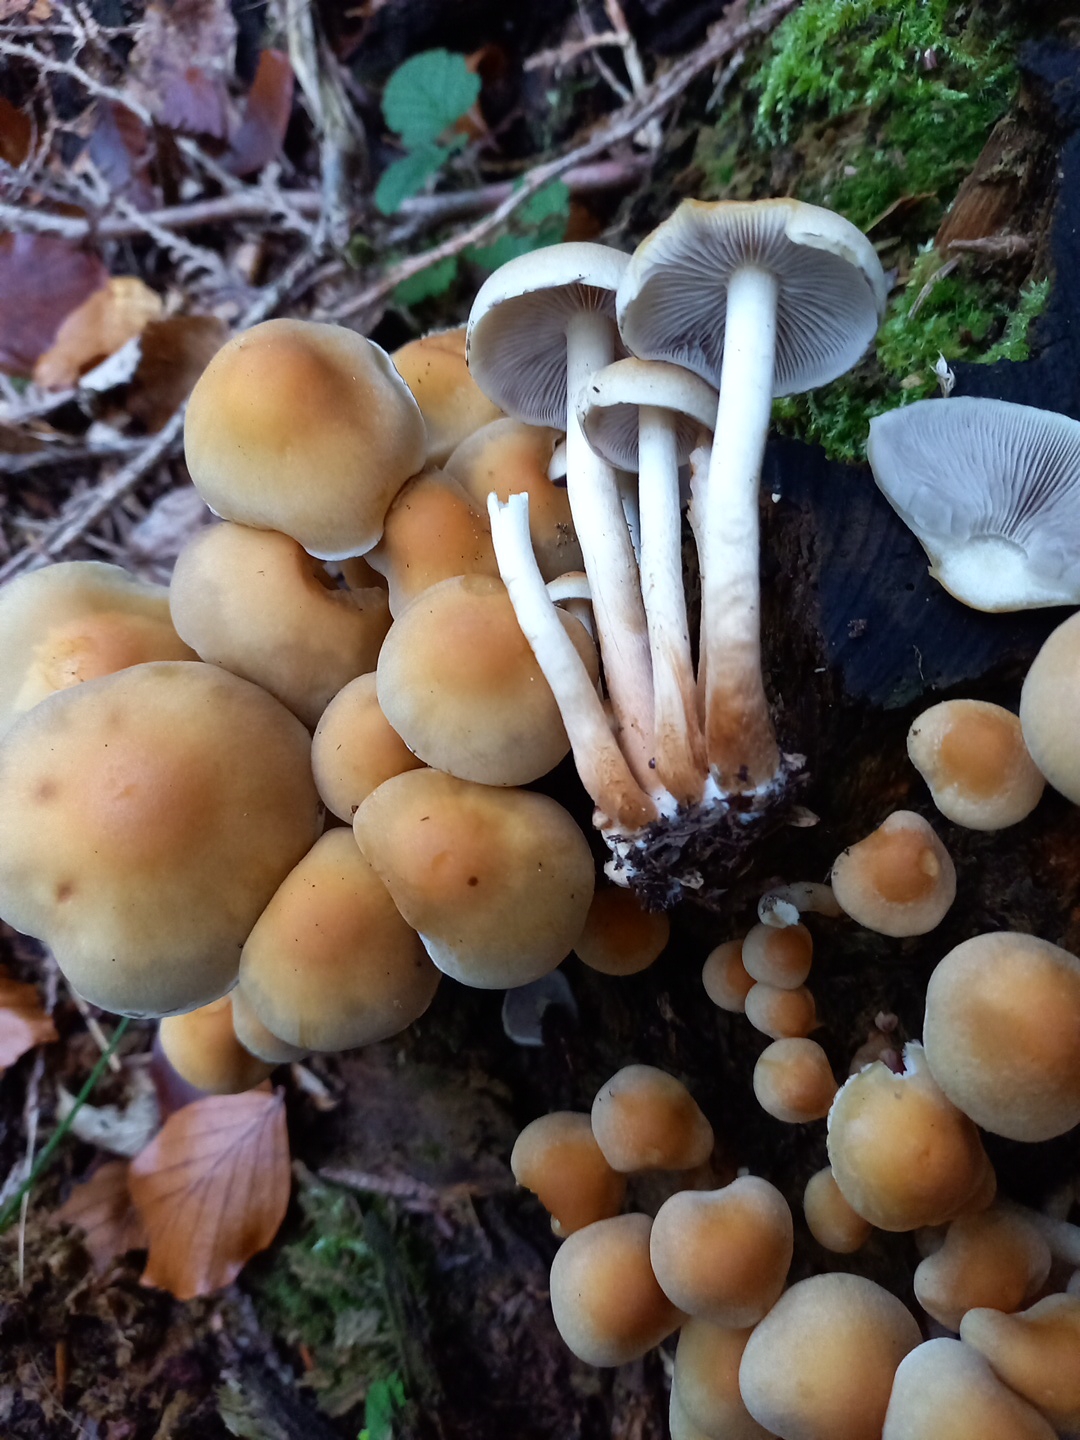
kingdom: Fungi
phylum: Basidiomycota
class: Agaricomycetes
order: Agaricales
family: Strophariaceae
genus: Hypholoma
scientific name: Hypholoma capnoides
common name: gran-svovlhat
